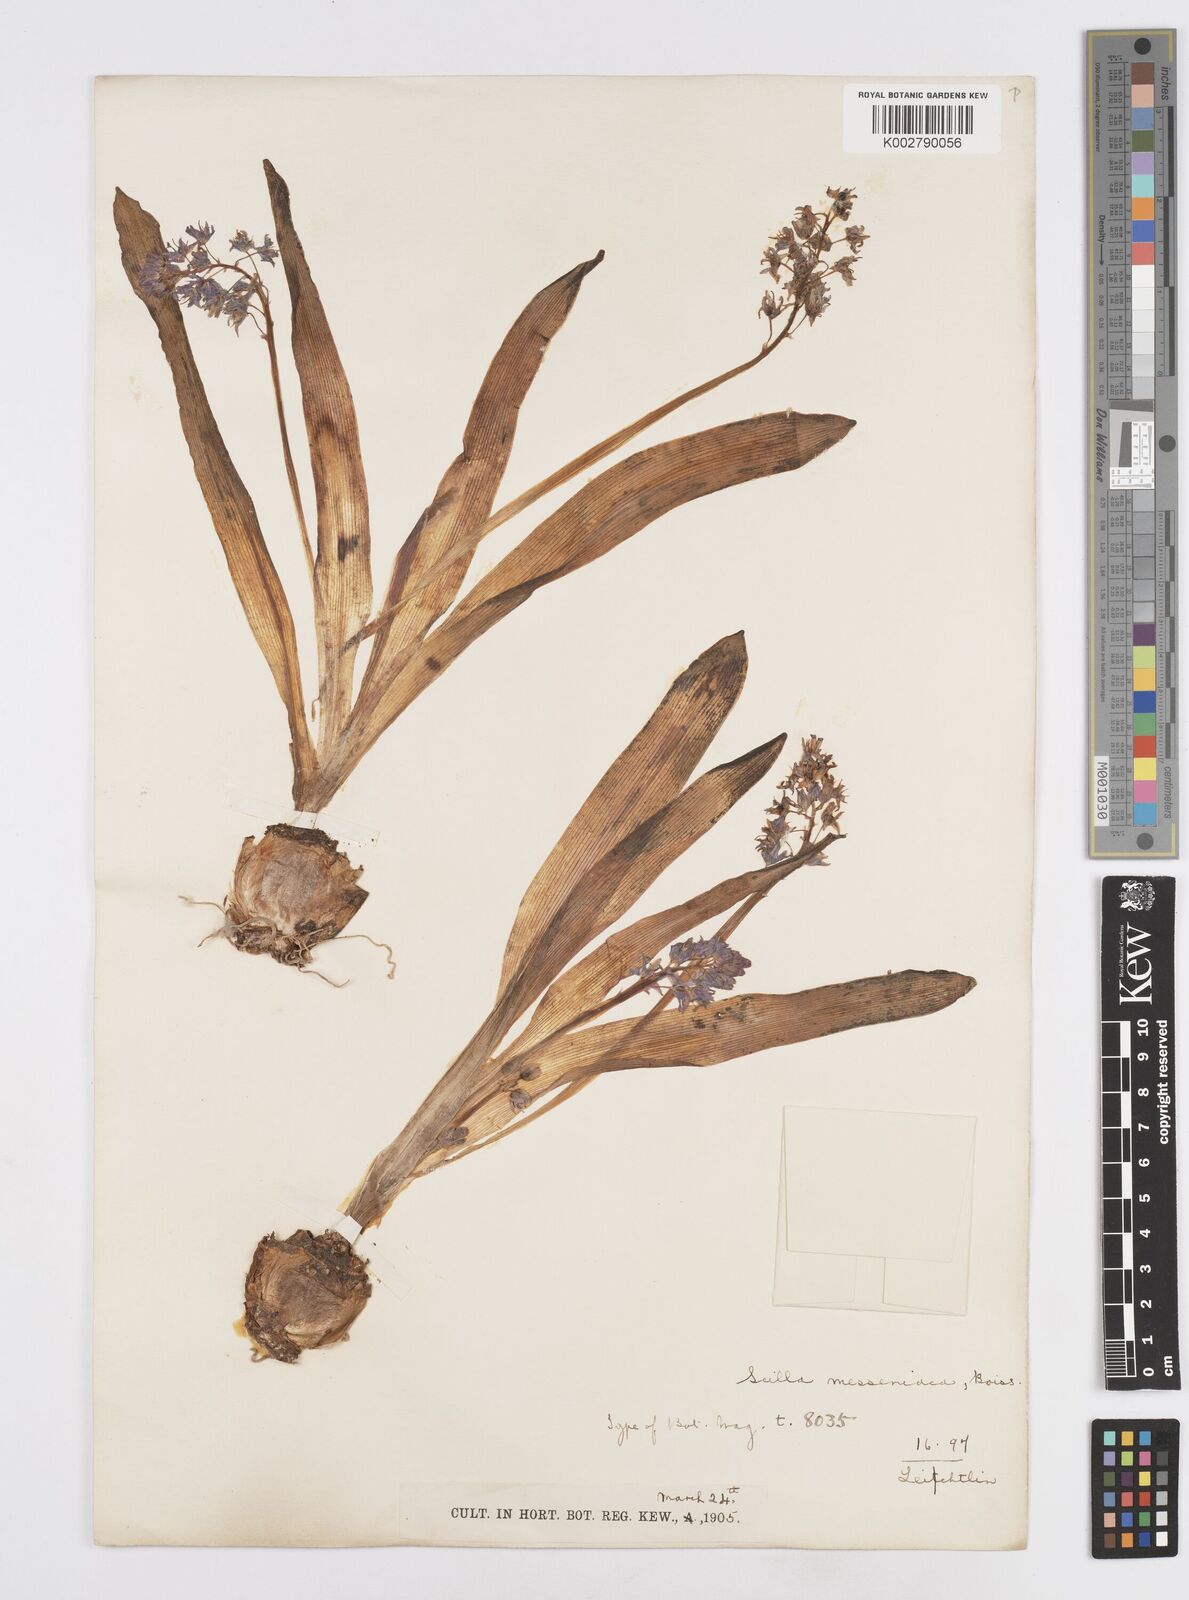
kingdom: Plantae
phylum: Tracheophyta
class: Liliopsida
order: Asparagales
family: Asparagaceae
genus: Scilla
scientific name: Scilla messeniaca
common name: Greek squill
